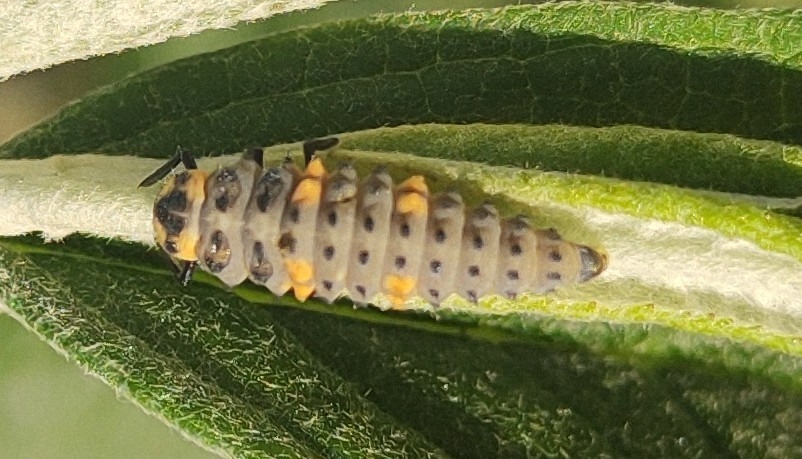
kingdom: Animalia
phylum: Arthropoda
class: Insecta
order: Coleoptera
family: Coccinellidae
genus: Coccinella
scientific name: Coccinella septempunctata
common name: Syvplettet mariehøne
